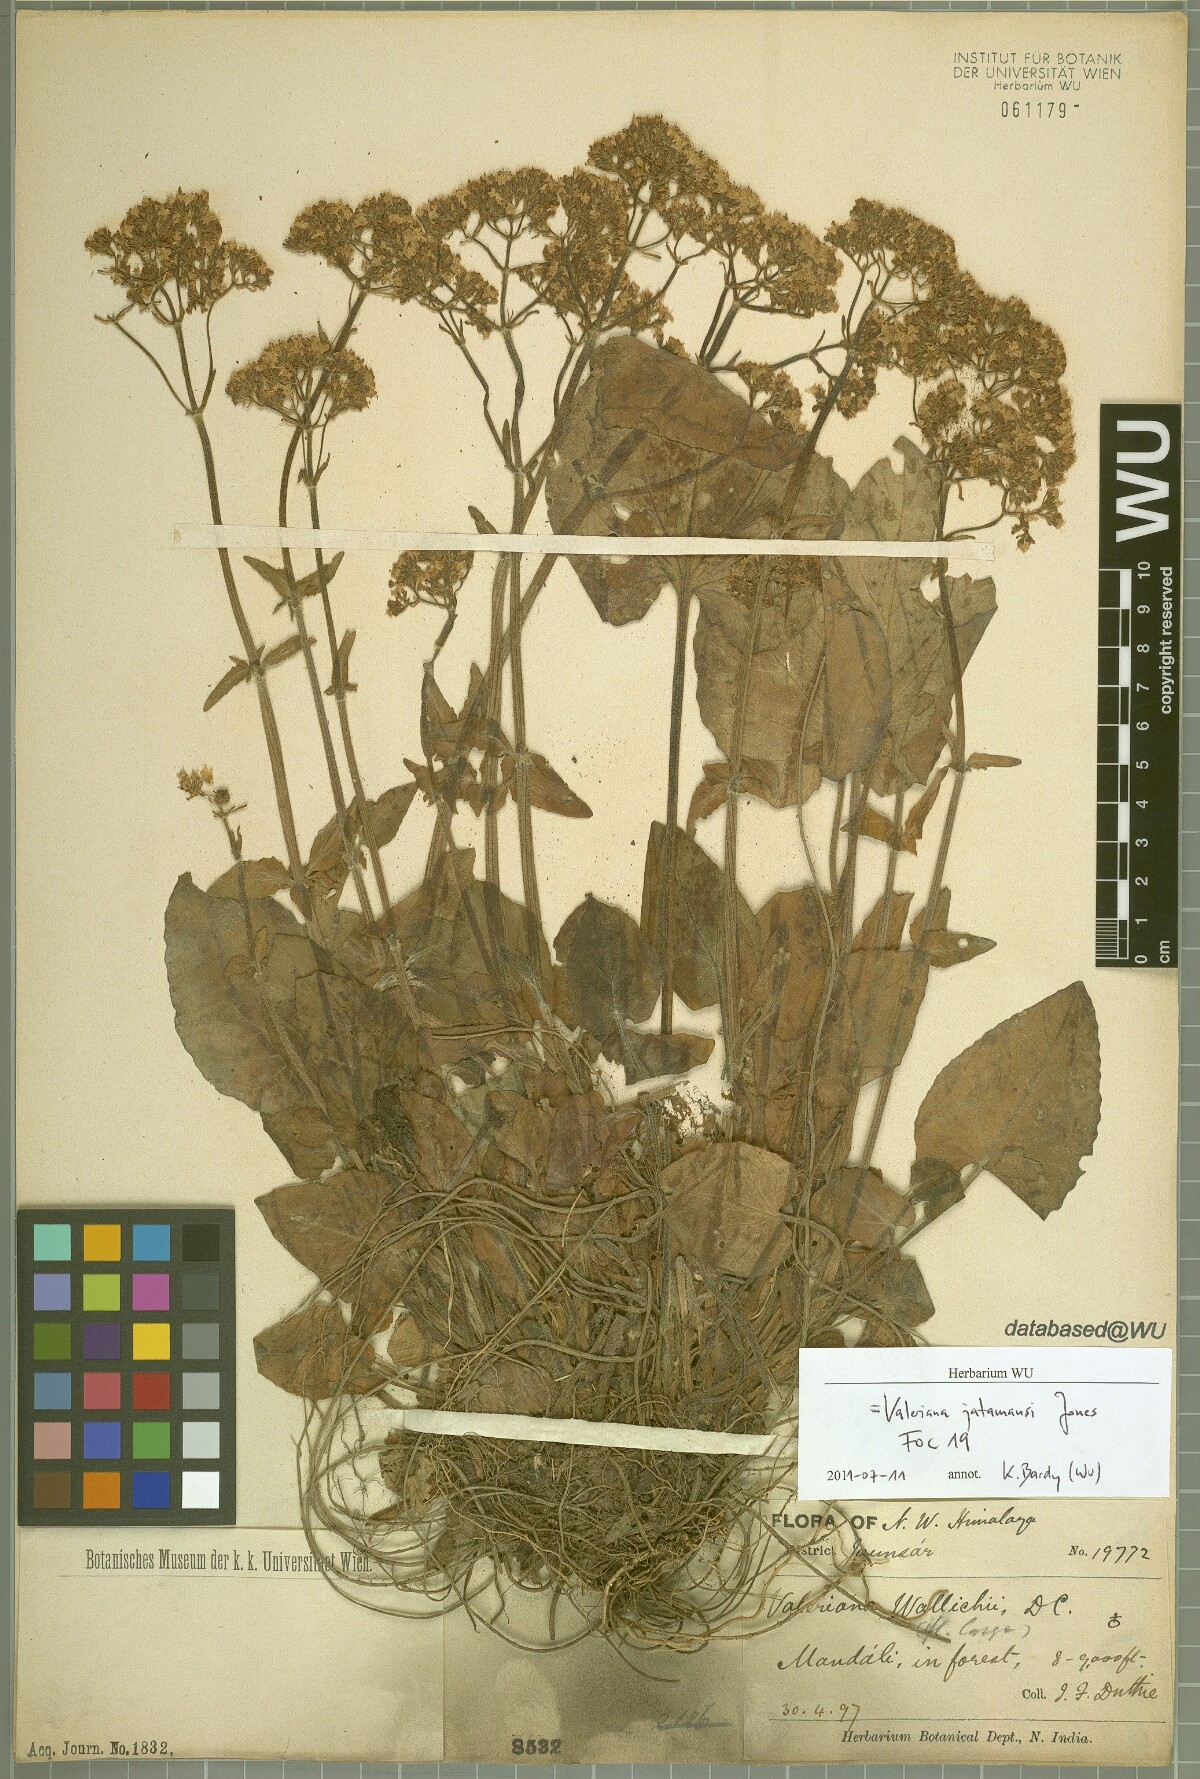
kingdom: Plantae
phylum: Tracheophyta
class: Magnoliopsida
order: Dipsacales
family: Caprifoliaceae
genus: Valeriana
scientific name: Valeriana jatamansi
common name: Indian valerian
